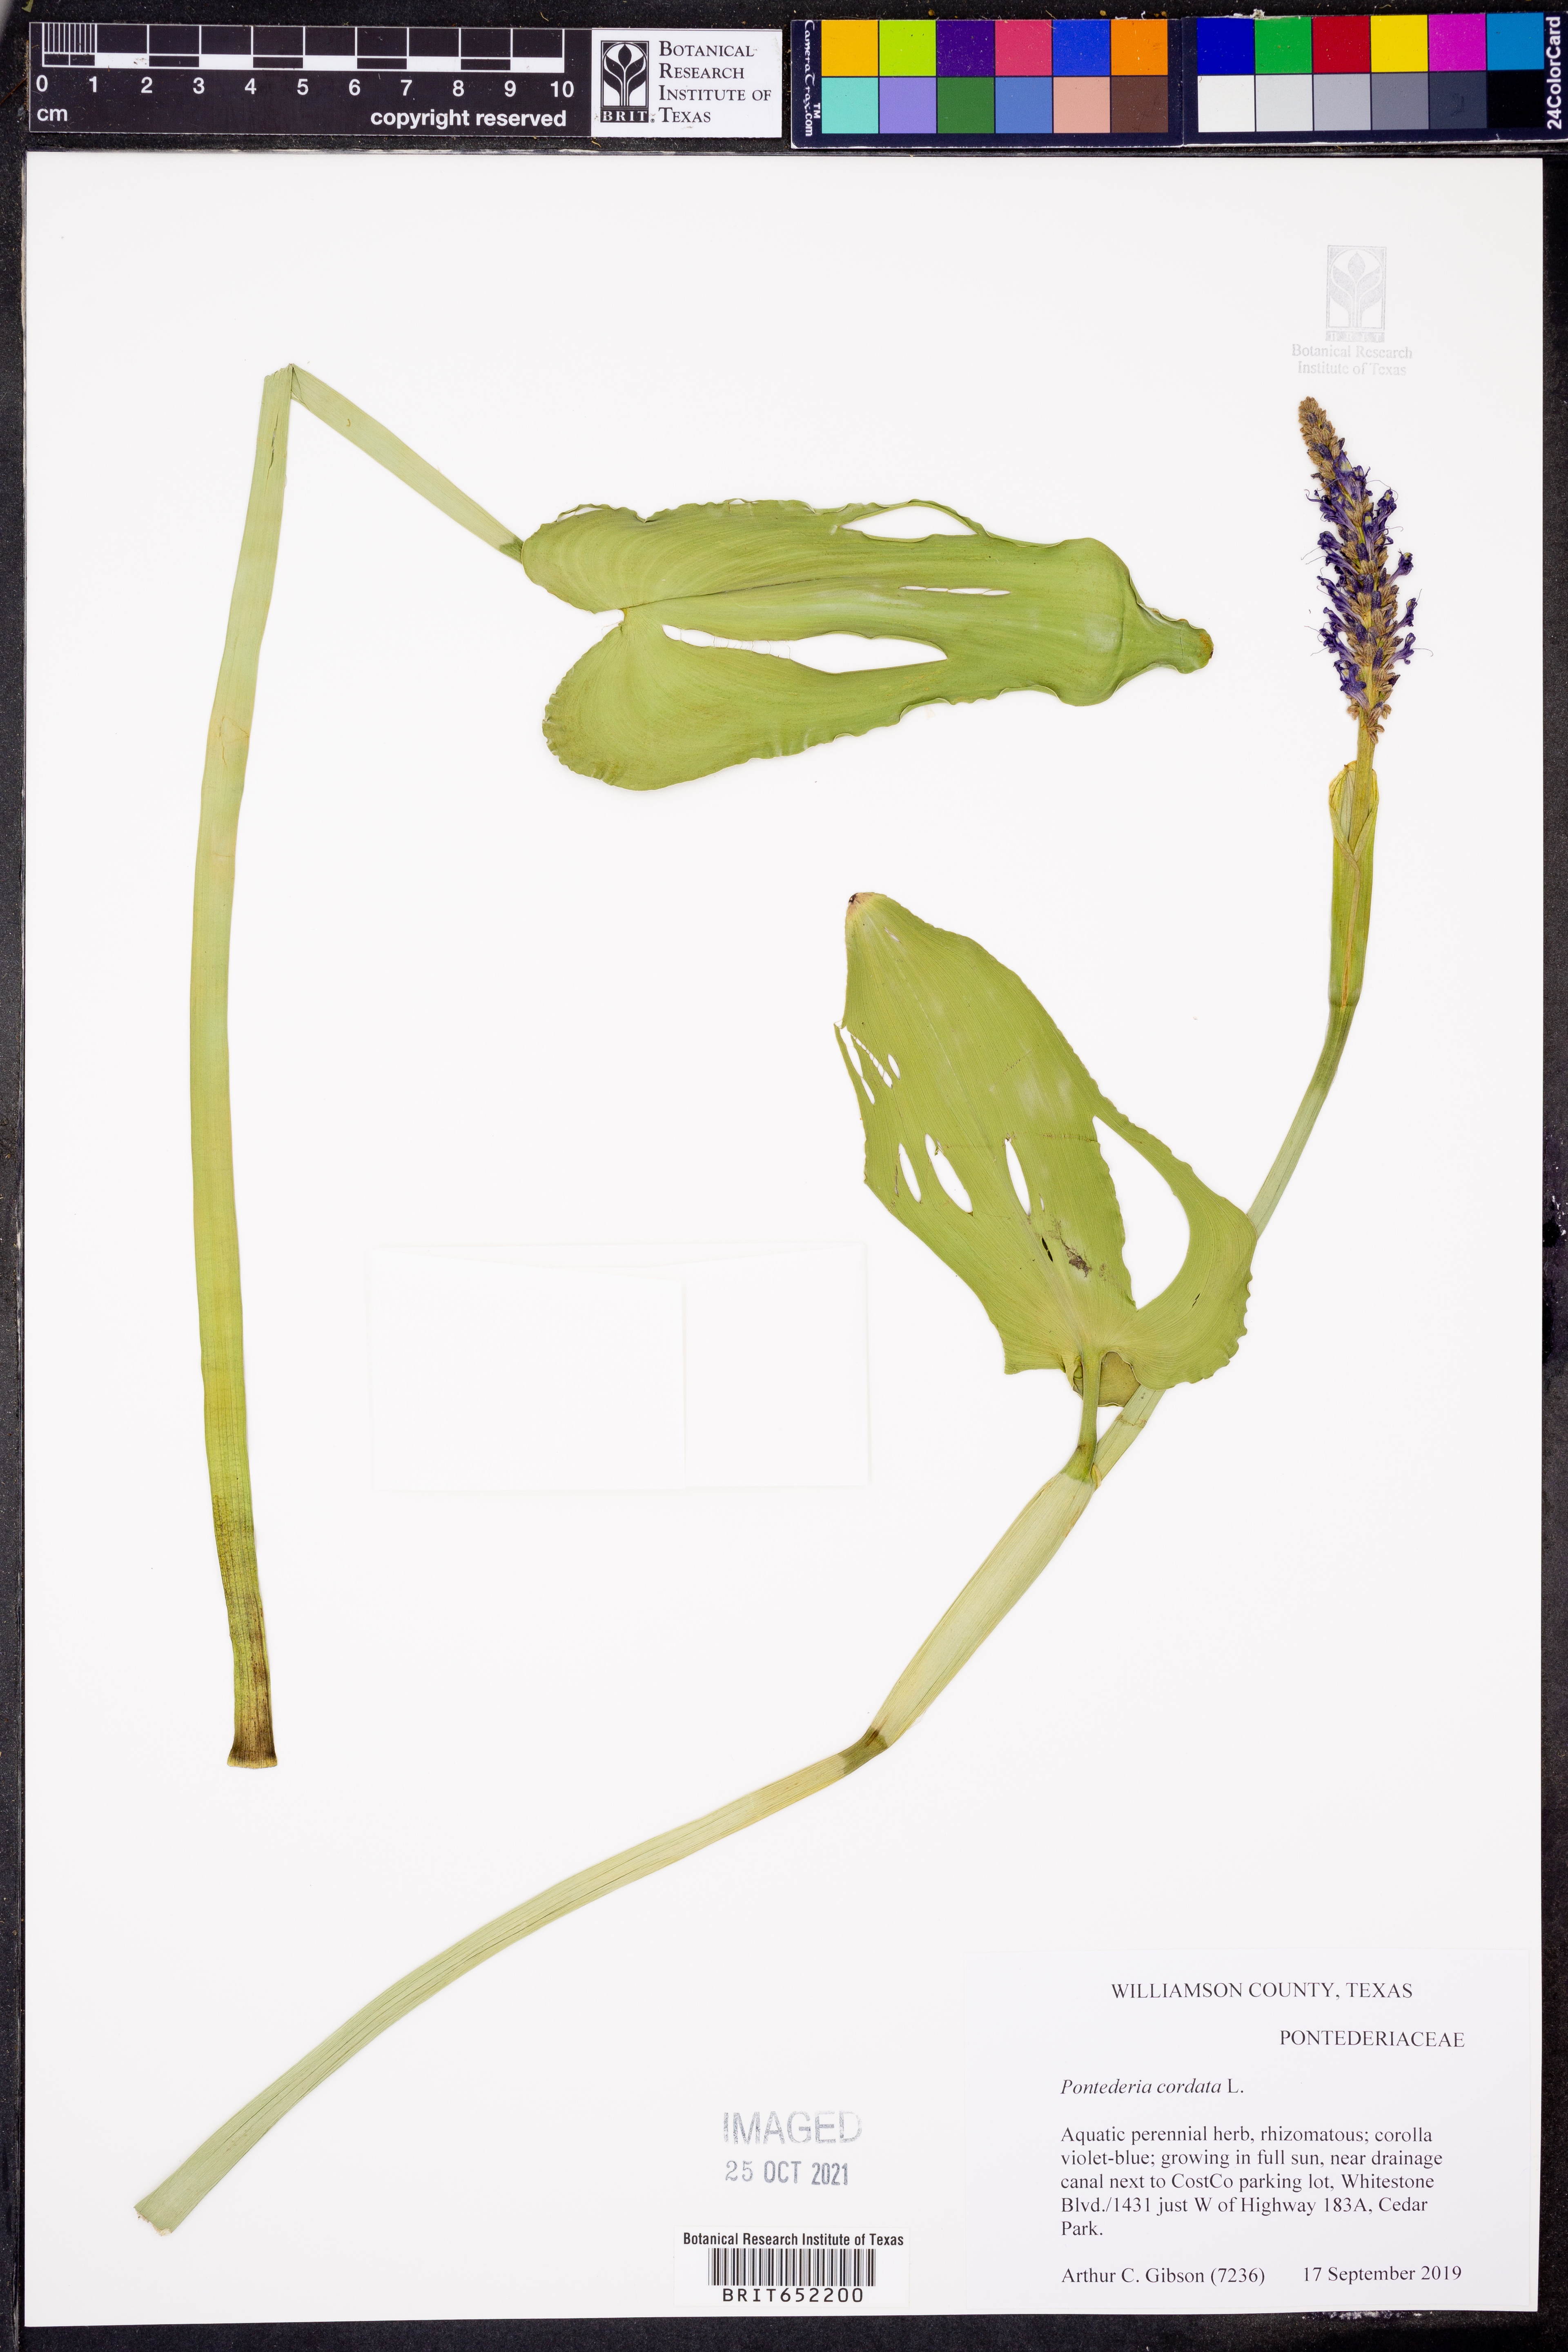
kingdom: Plantae
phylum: Tracheophyta
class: Liliopsida
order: Commelinales
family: Pontederiaceae
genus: Pontederia
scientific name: Pontederia cordata
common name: Pickerelweed
